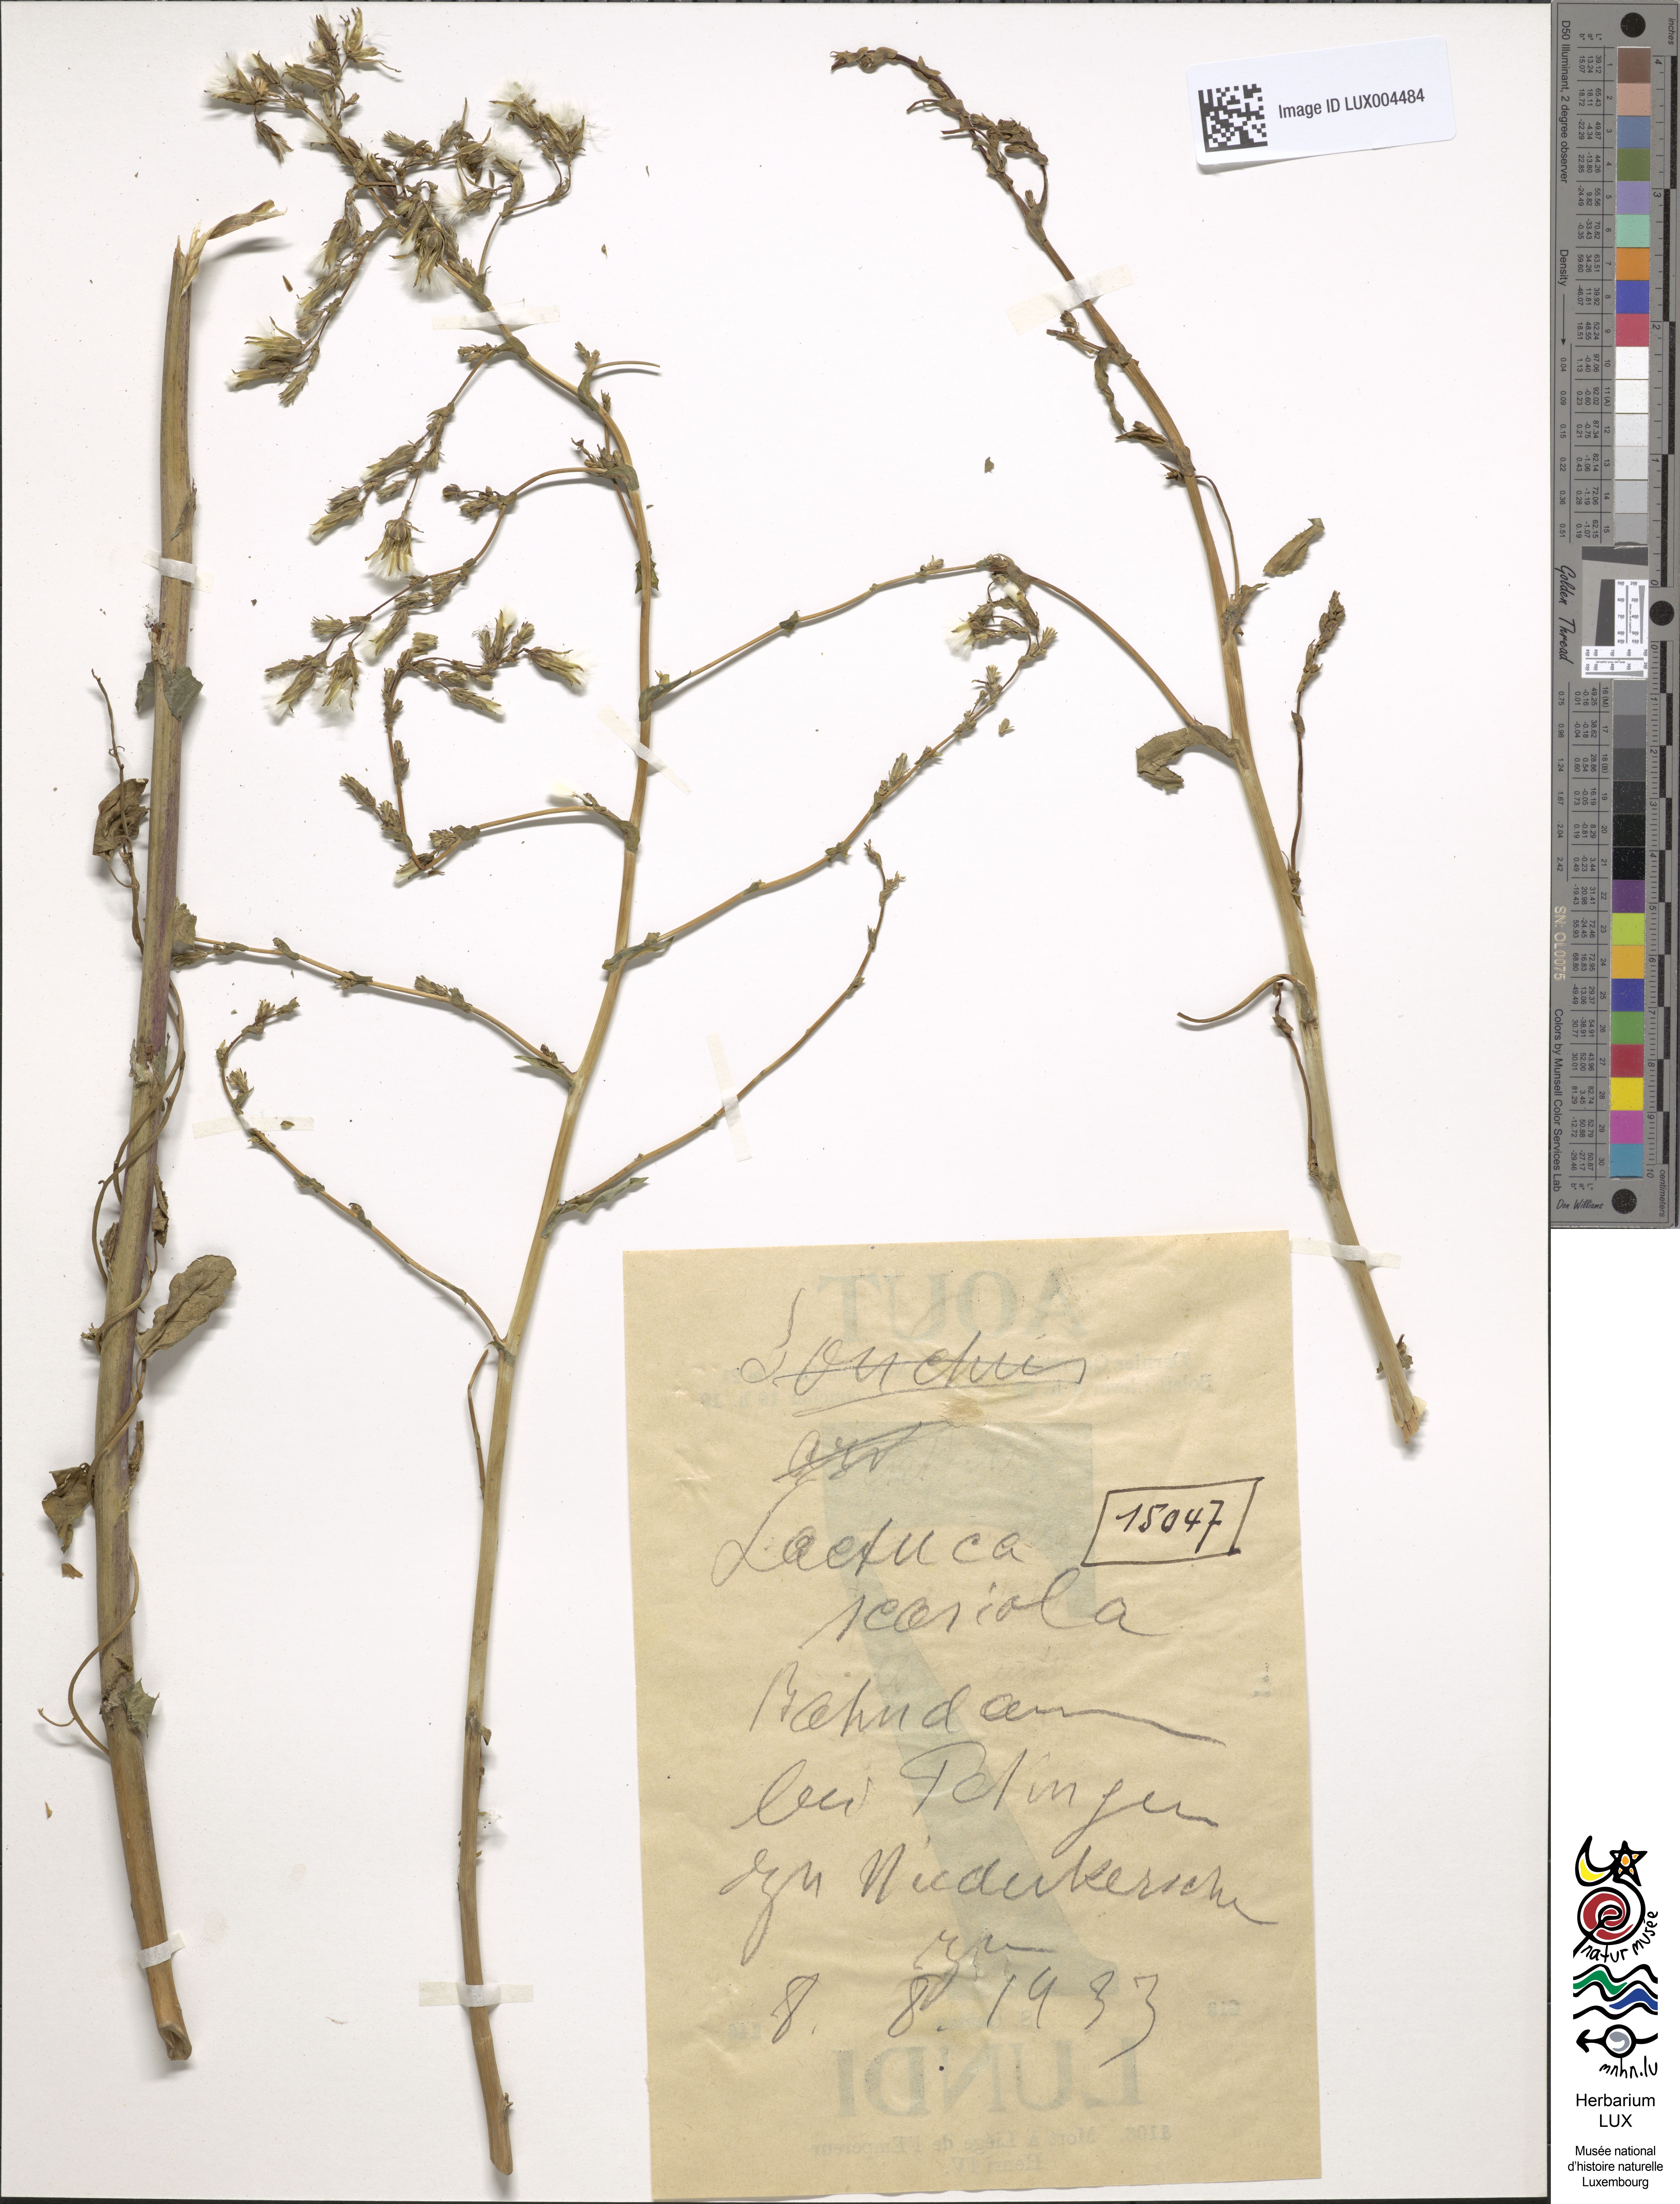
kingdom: Plantae
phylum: Tracheophyta
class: Magnoliopsida
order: Asterales
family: Asteraceae
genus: Lactuca
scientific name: Lactuca serriola
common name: Prickly lettuce
